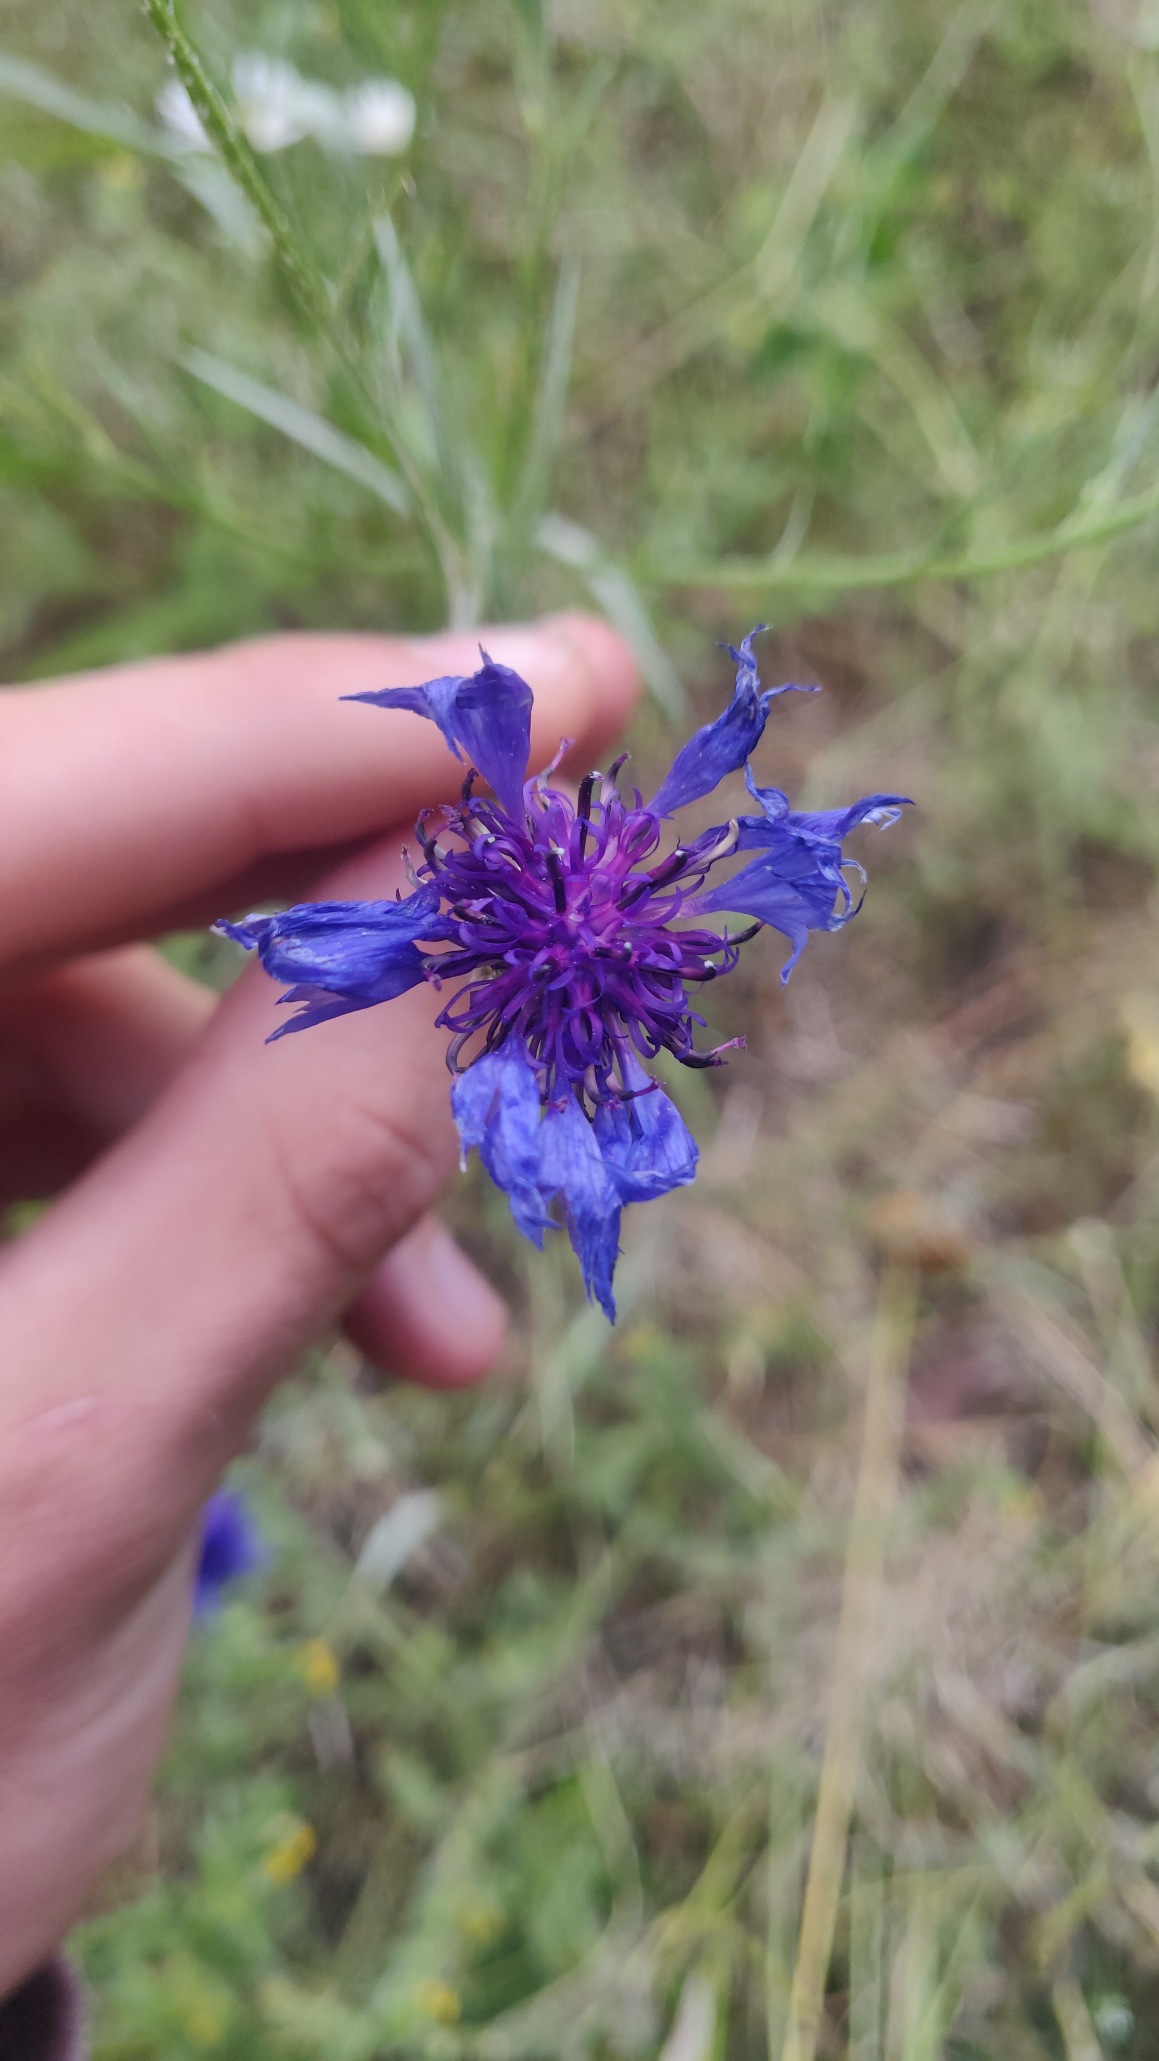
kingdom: Plantae
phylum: Tracheophyta
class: Magnoliopsida
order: Asterales
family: Asteraceae
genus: Centaurea
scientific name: Centaurea cyanus
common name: Kornblomst
